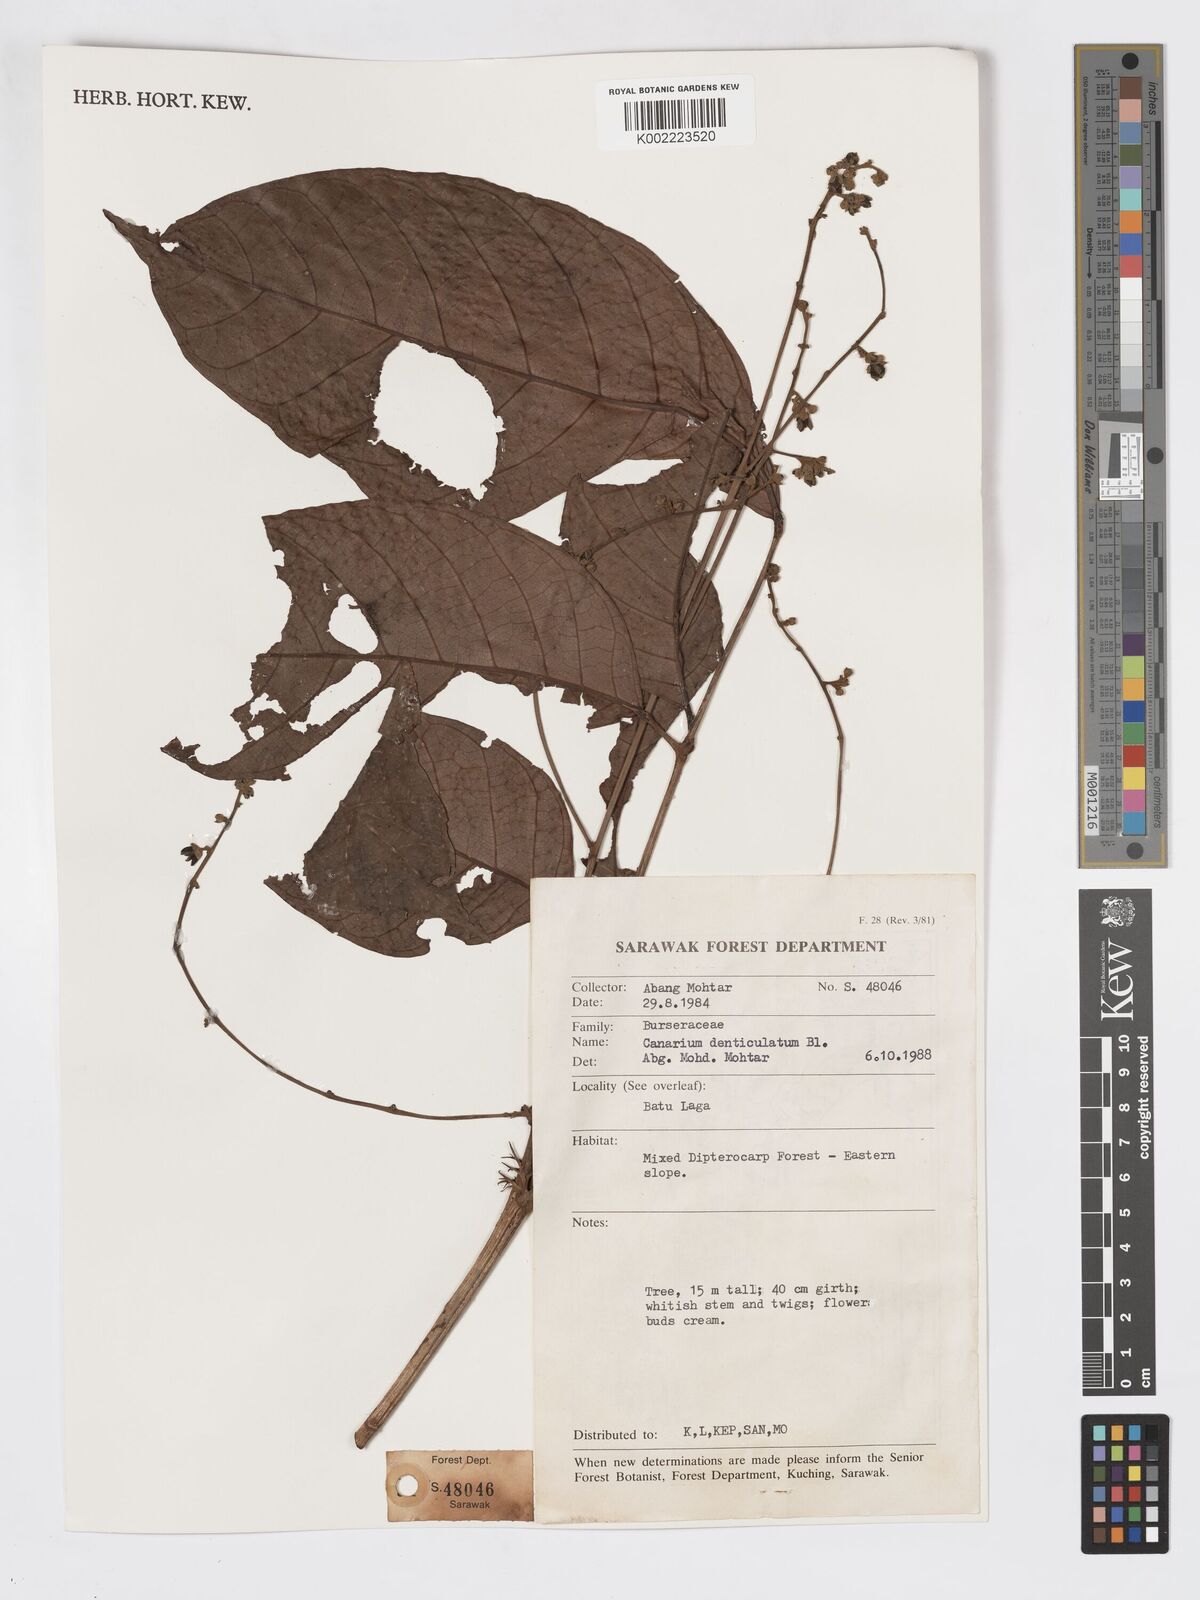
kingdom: Plantae
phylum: Tracheophyta
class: Magnoliopsida
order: Sapindales
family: Burseraceae
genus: Canarium
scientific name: Canarium denticulatum
